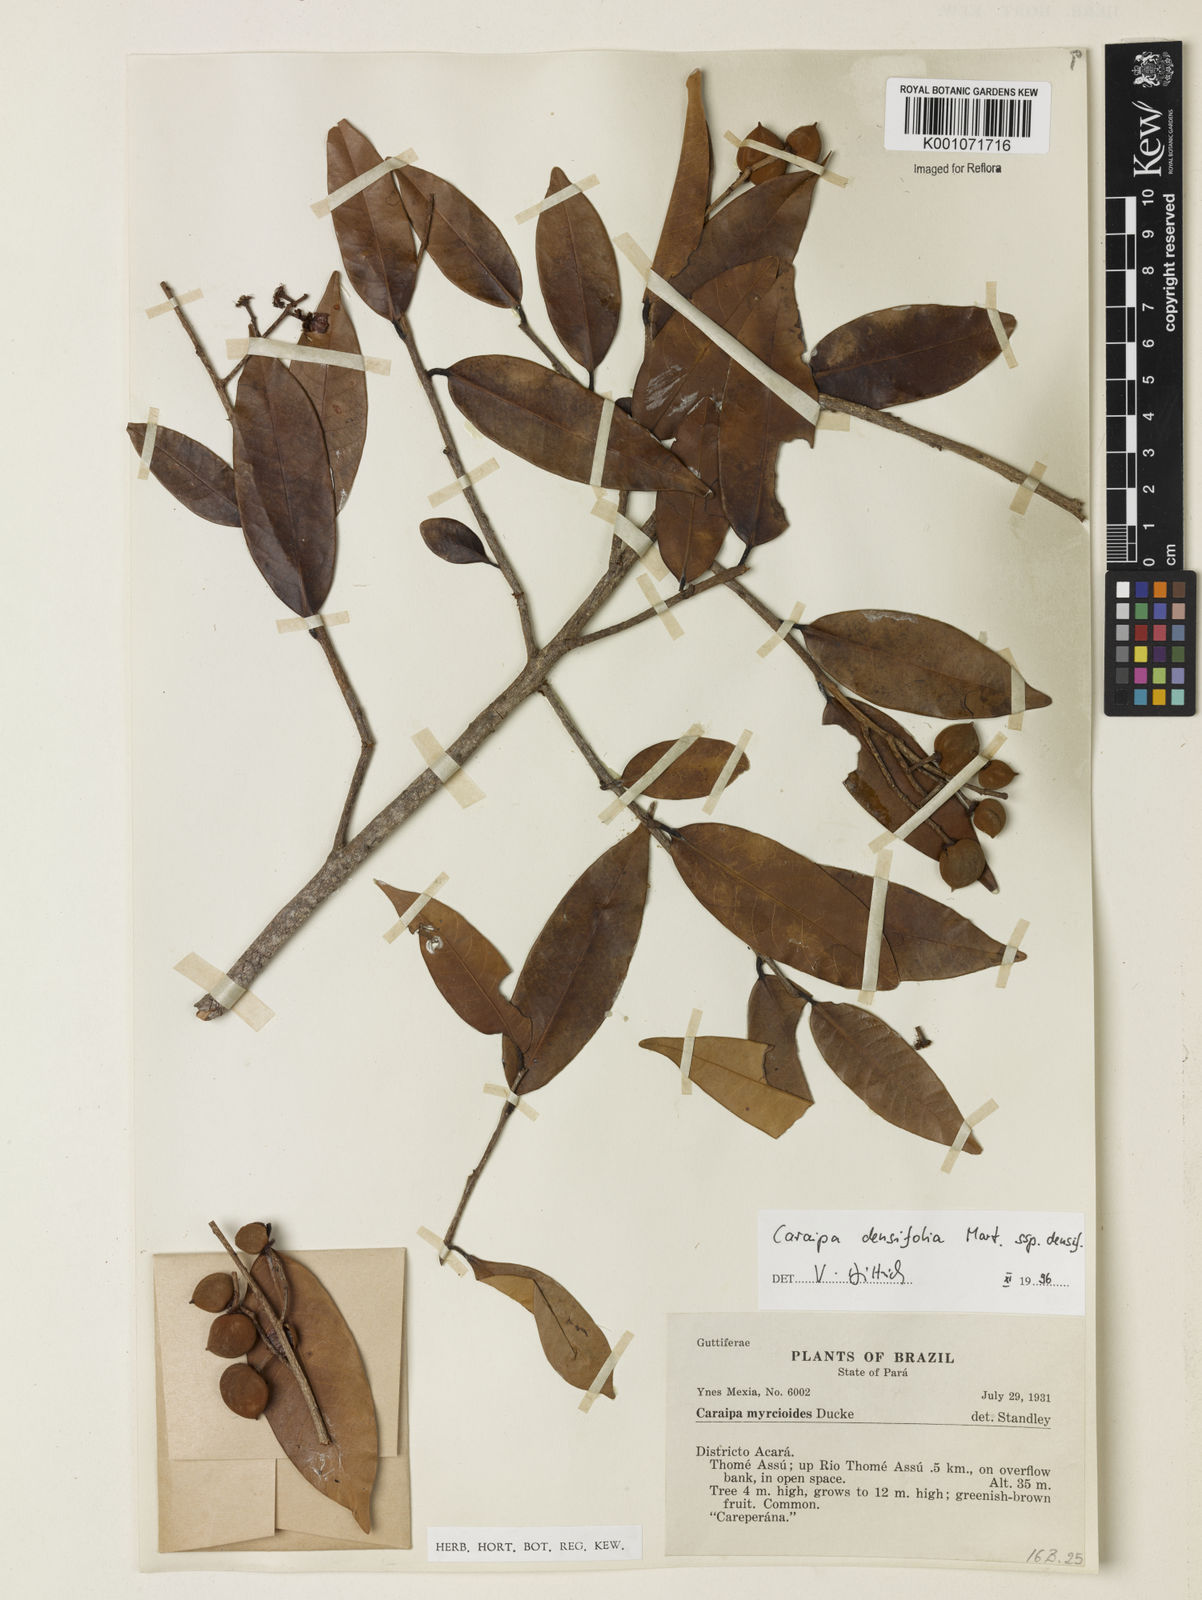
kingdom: Plantae
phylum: Tracheophyta
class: Magnoliopsida
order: Malpighiales
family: Calophyllaceae
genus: Caraipa
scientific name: Caraipa densifolia
